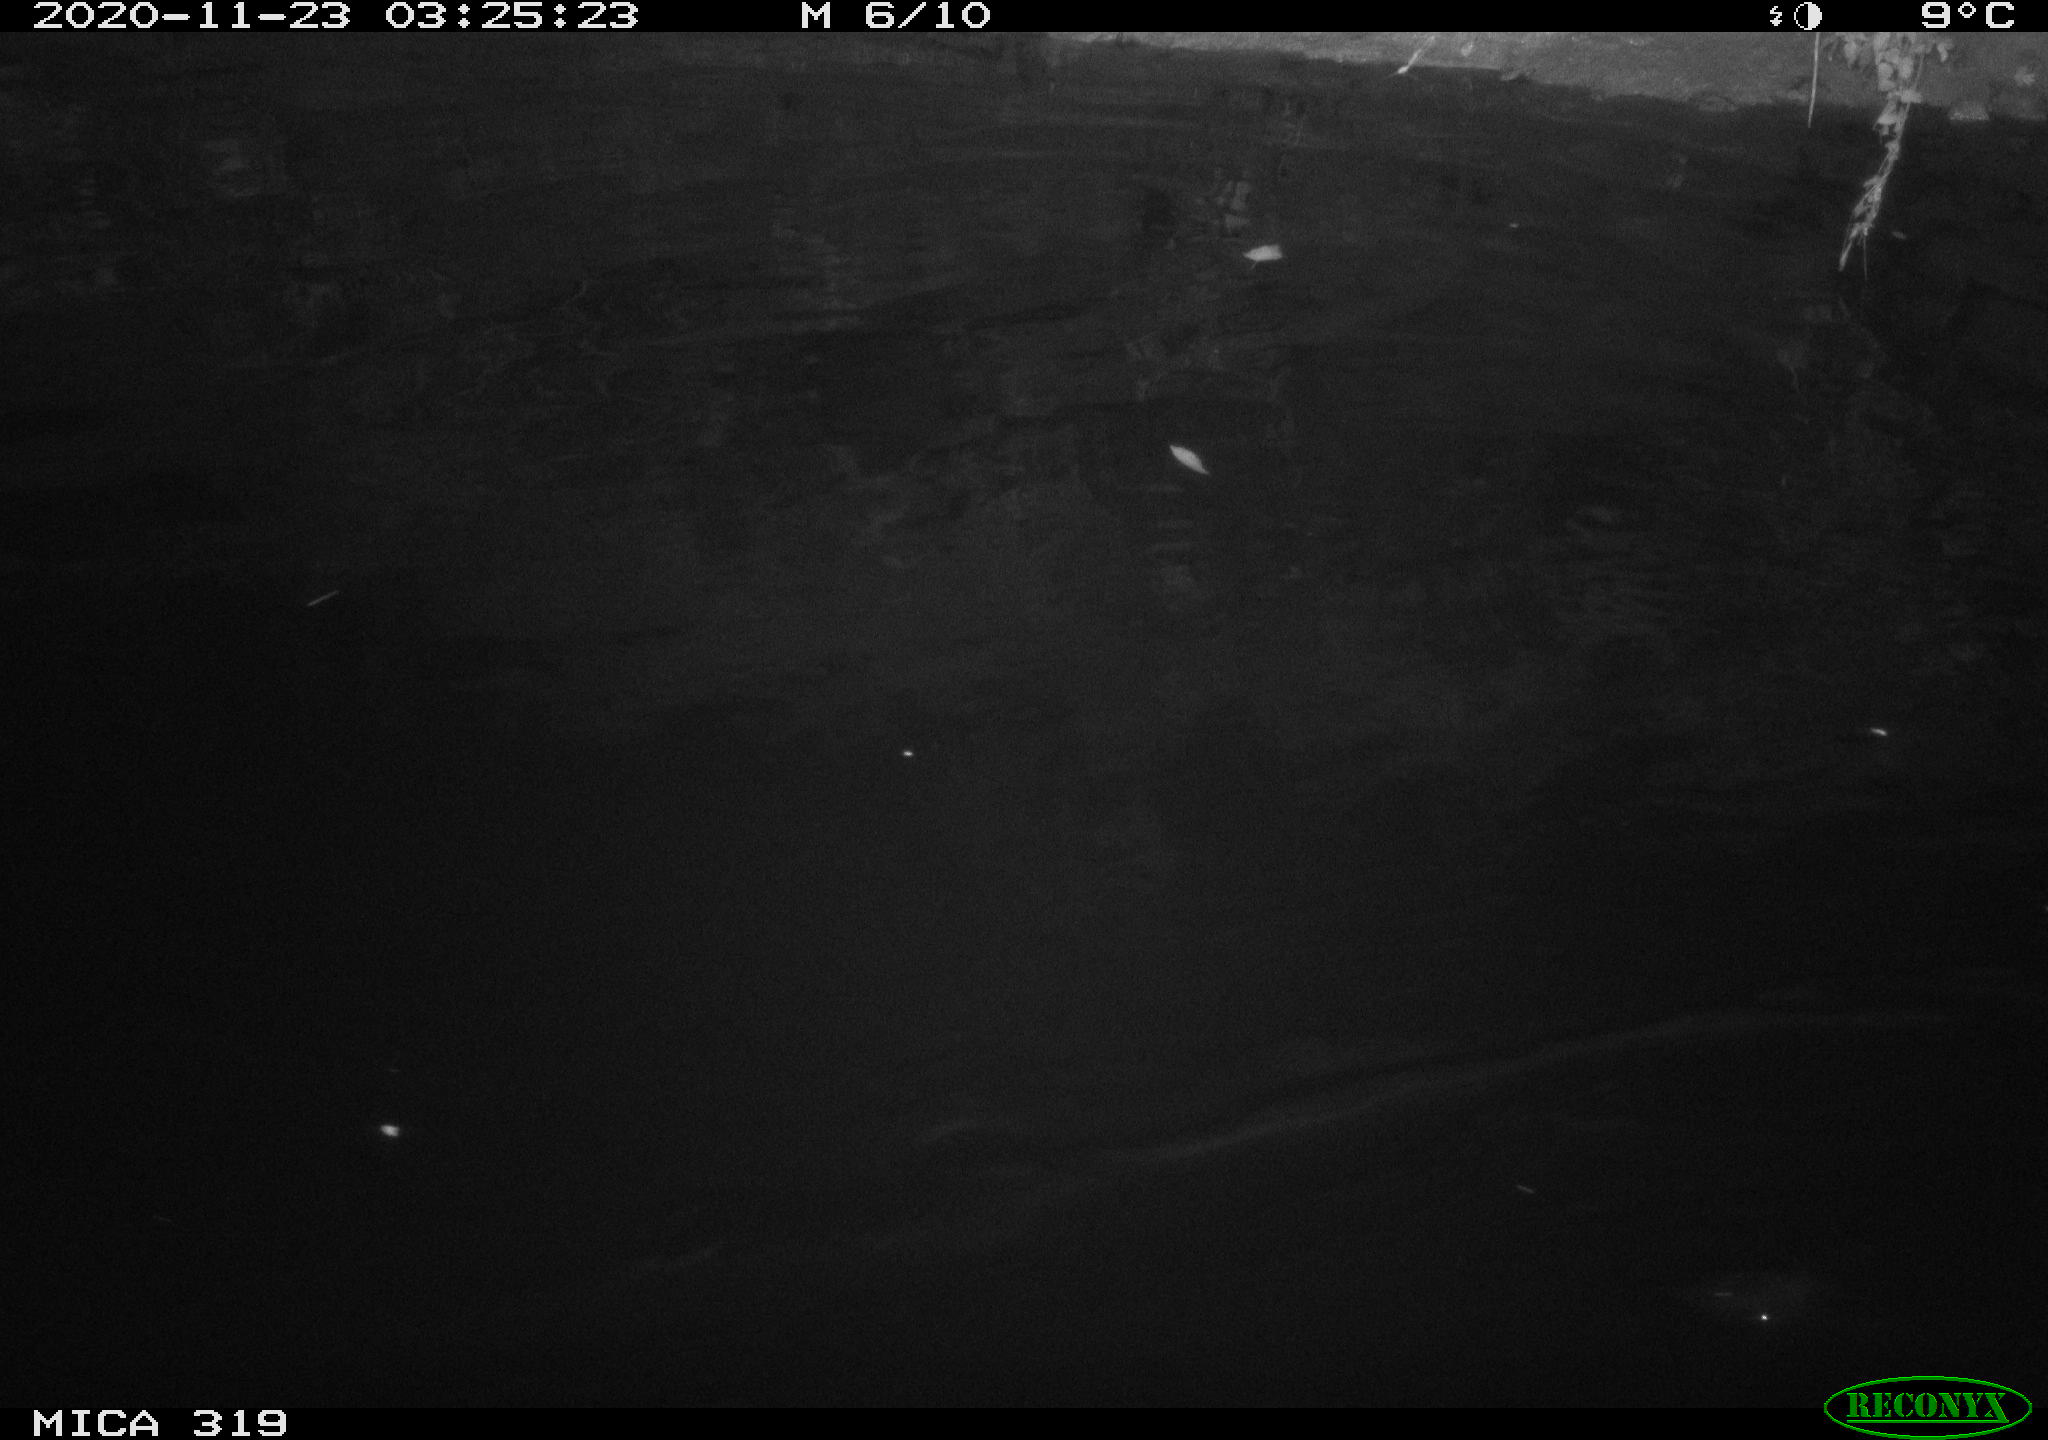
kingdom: Animalia
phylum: Chordata
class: Aves
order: Anseriformes
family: Anatidae
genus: Anas
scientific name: Anas platyrhynchos
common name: Mallard
